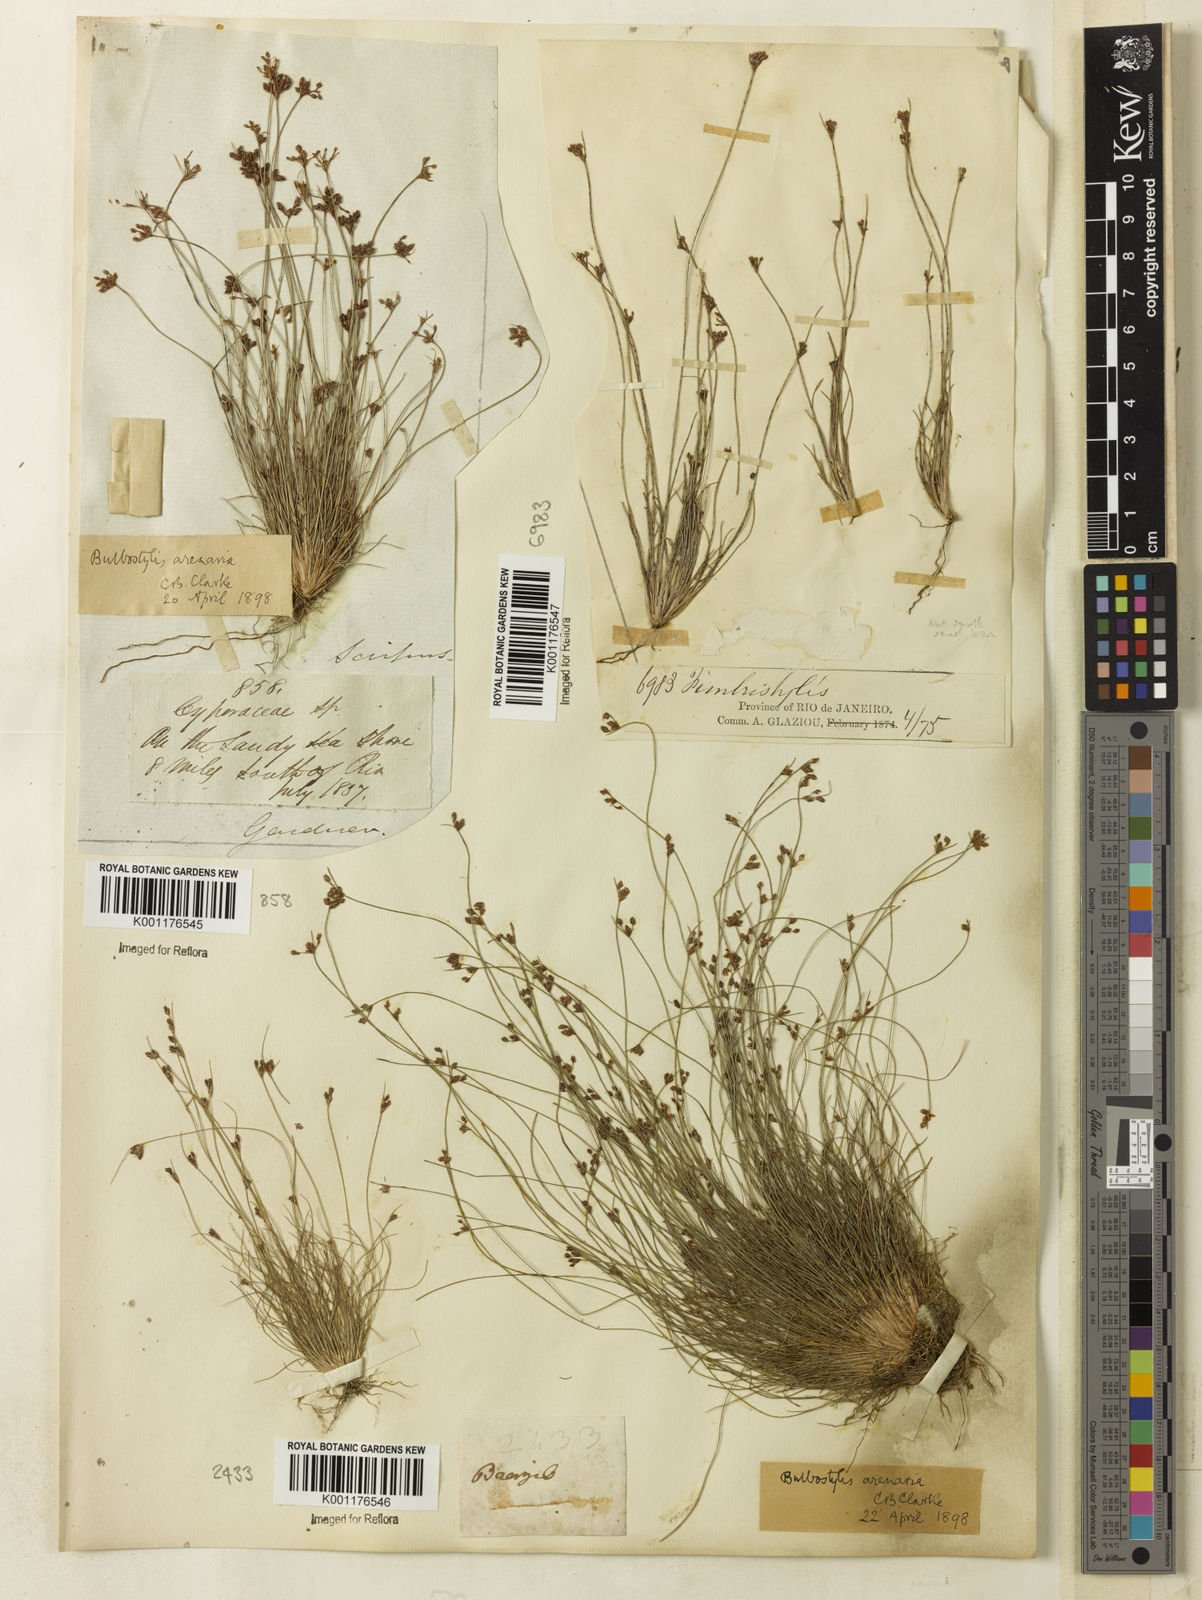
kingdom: Plantae
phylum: Tracheophyta
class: Liliopsida
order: Poales
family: Cyperaceae
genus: Bulbostylis
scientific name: Bulbostylis juncoides
